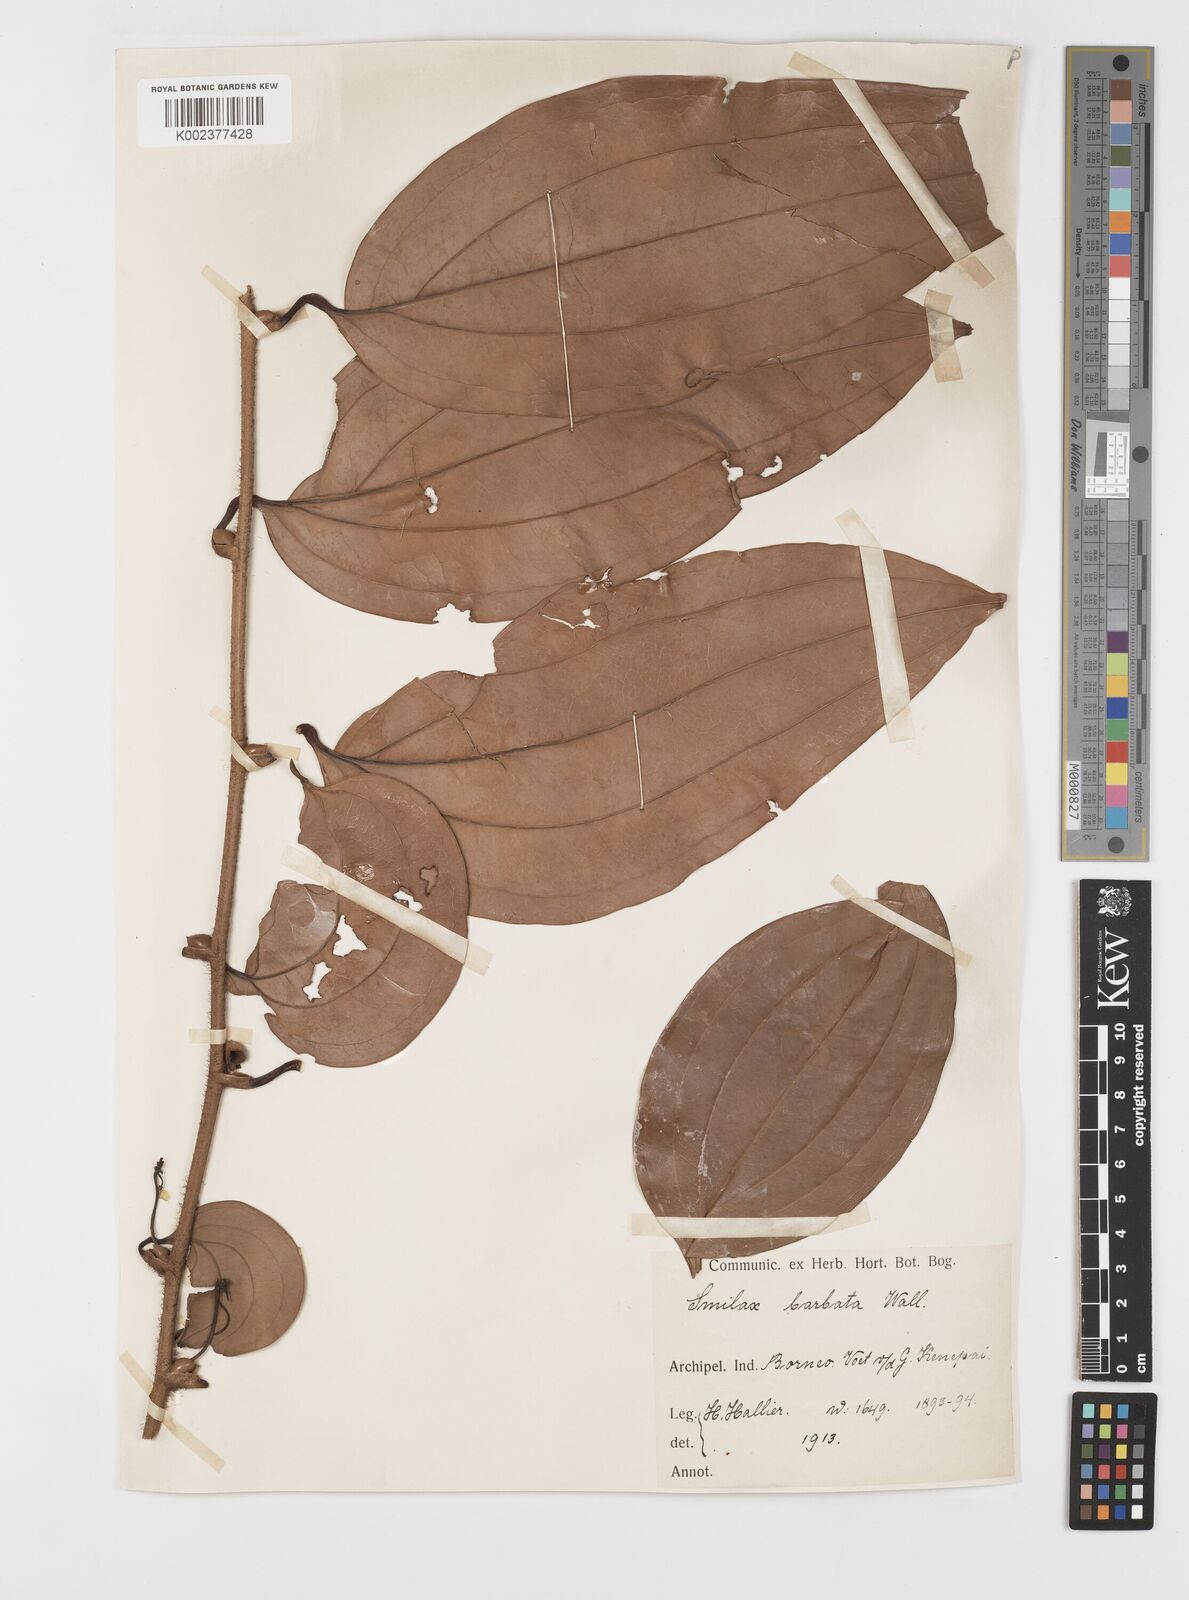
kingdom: Plantae
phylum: Tracheophyta
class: Liliopsida
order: Liliales
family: Smilacaceae
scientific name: Smilacaceae
